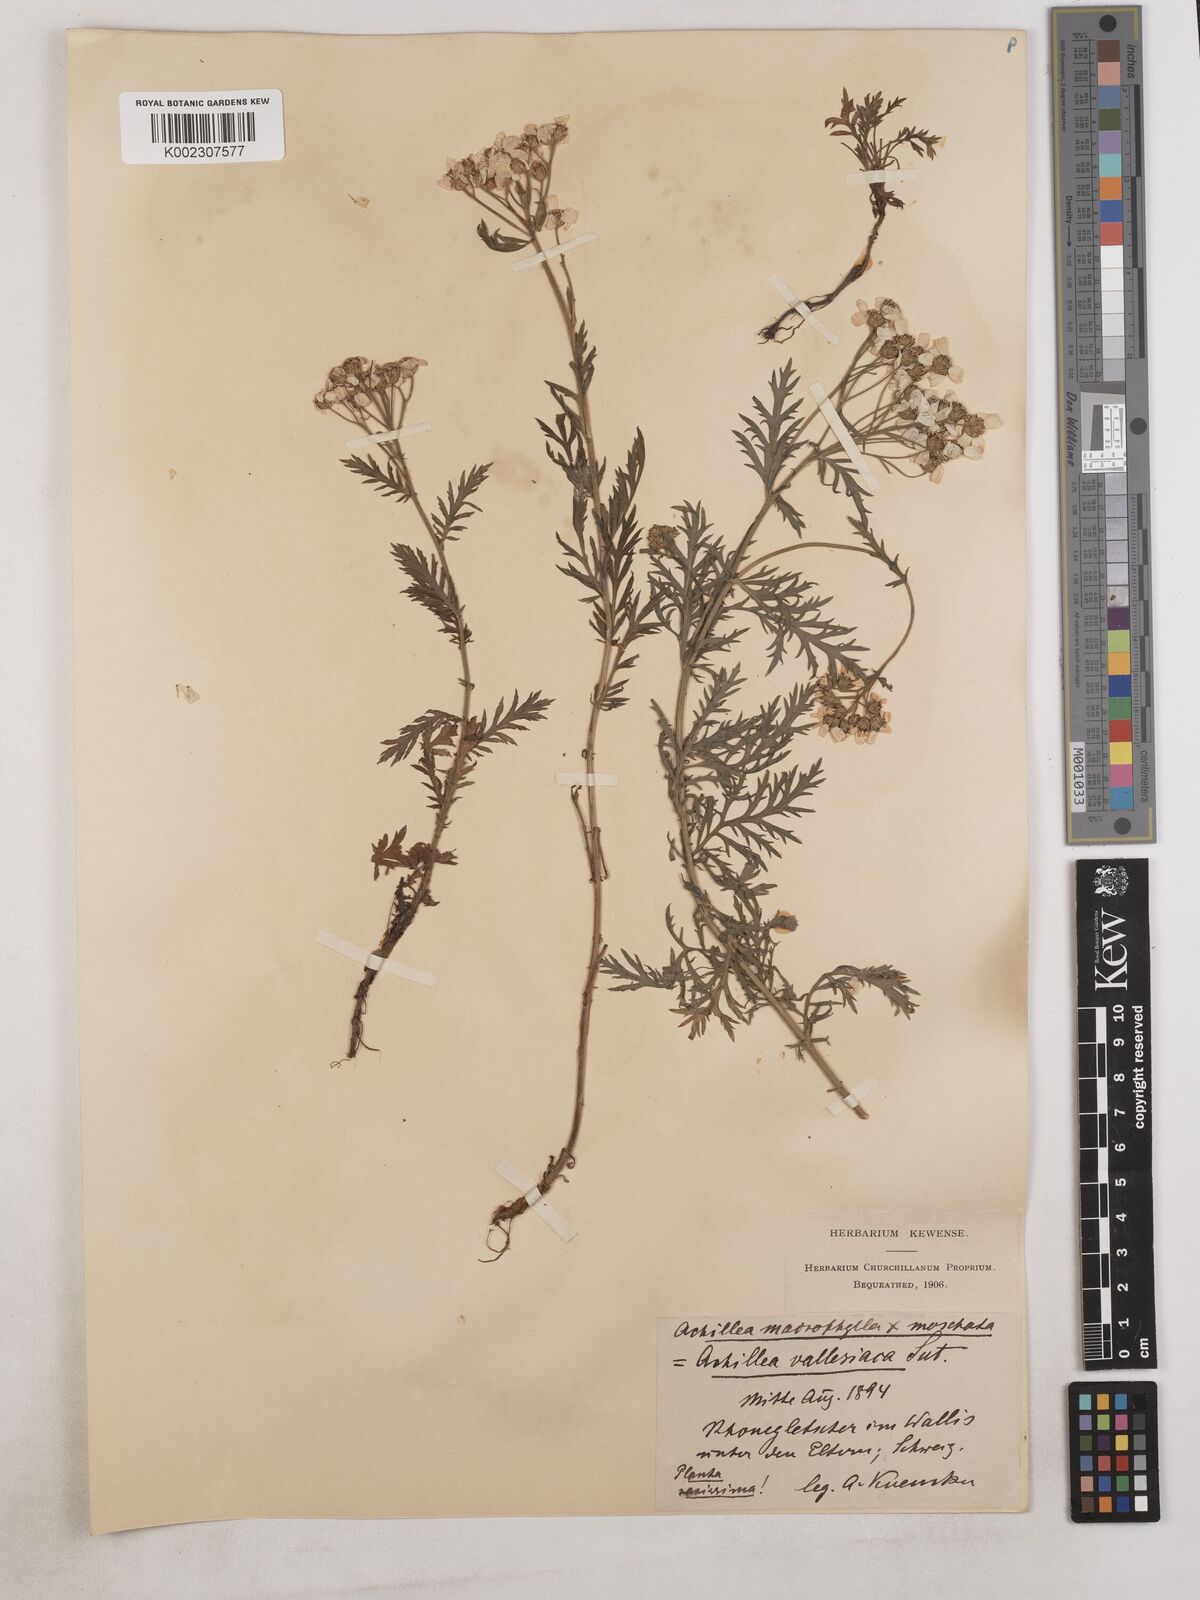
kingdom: Plantae
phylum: Tracheophyta
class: Magnoliopsida
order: Asterales
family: Asteraceae
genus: Achillea
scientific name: Achillea valesiaca
